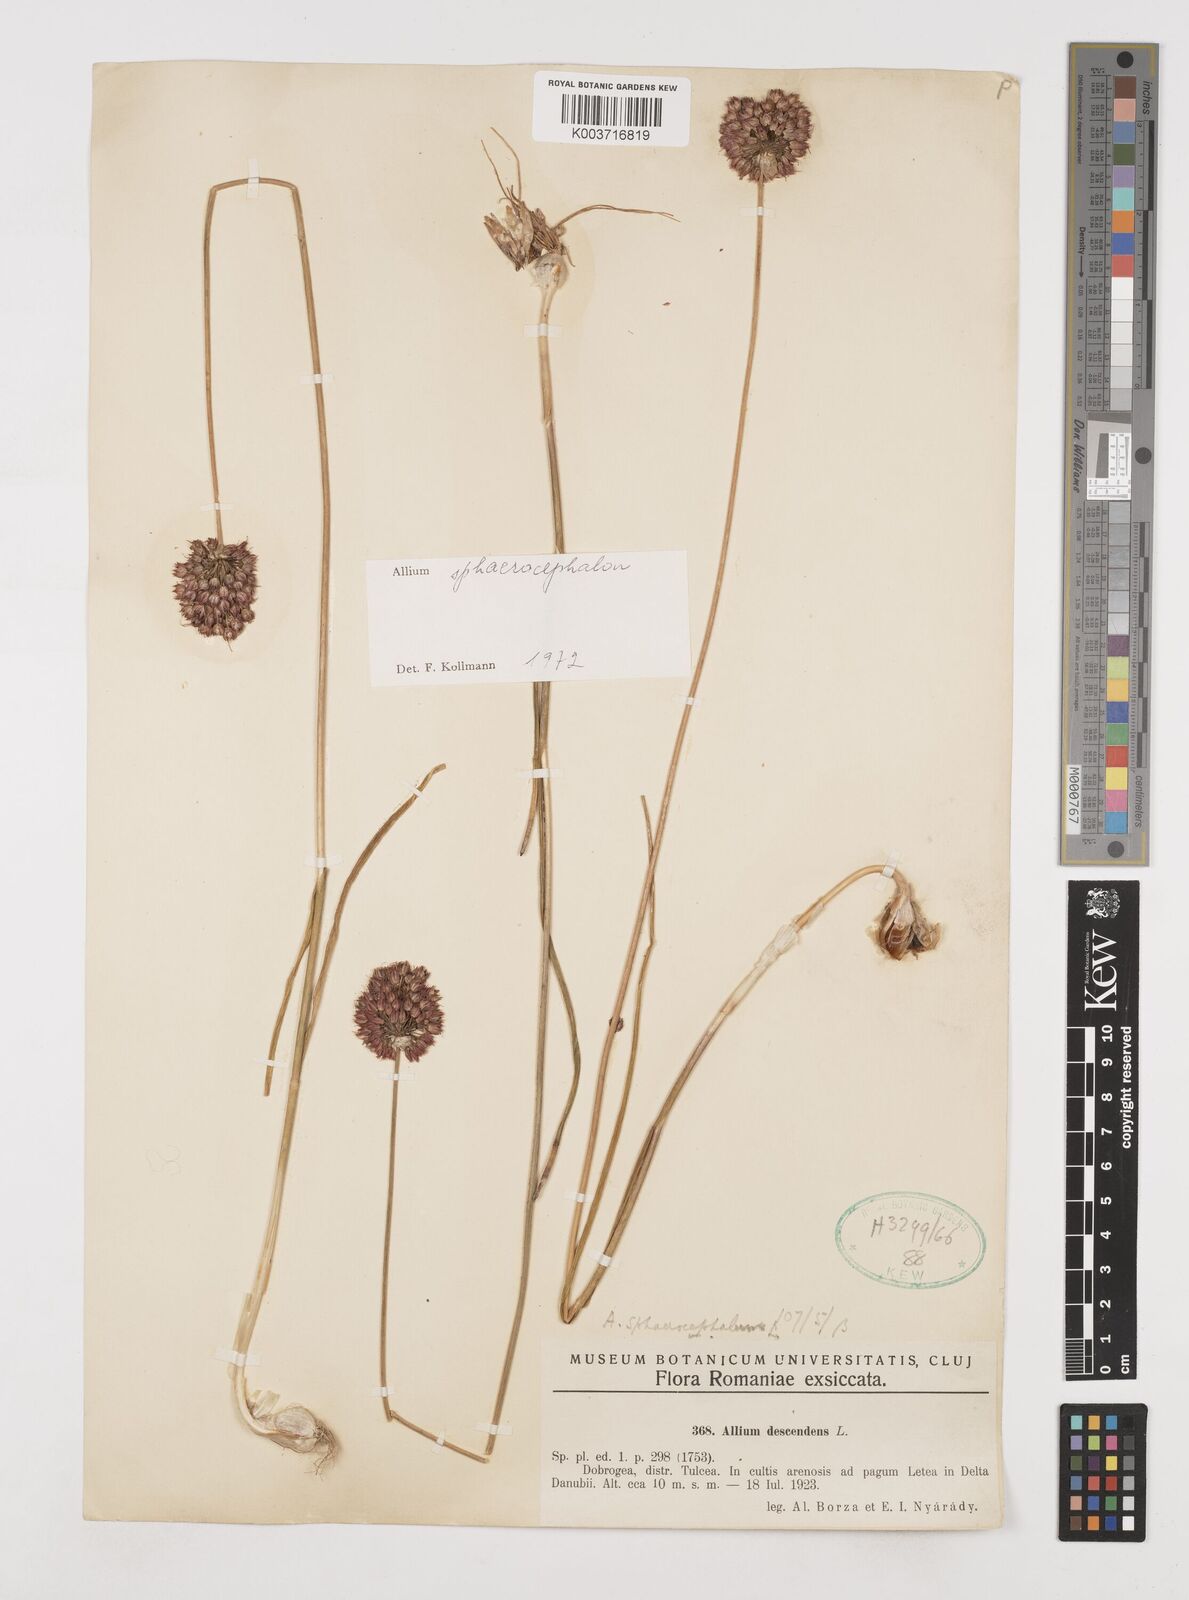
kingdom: Plantae
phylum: Tracheophyta
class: Liliopsida
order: Asparagales
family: Amaryllidaceae
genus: Allium
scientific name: Allium sphaerocephalon
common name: Round-headed leek
